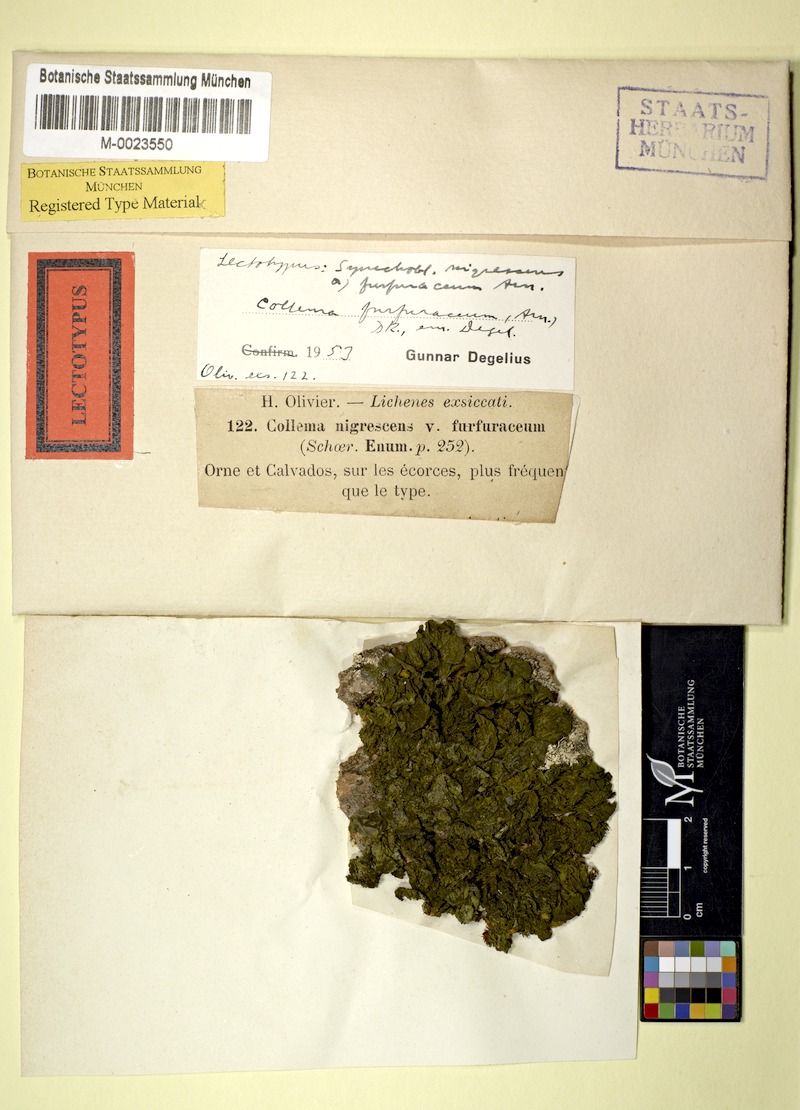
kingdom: Fungi
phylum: Ascomycota
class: Lecanoromycetes
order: Peltigerales
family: Collemataceae
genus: Collema
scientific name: Collema furfuraceum
